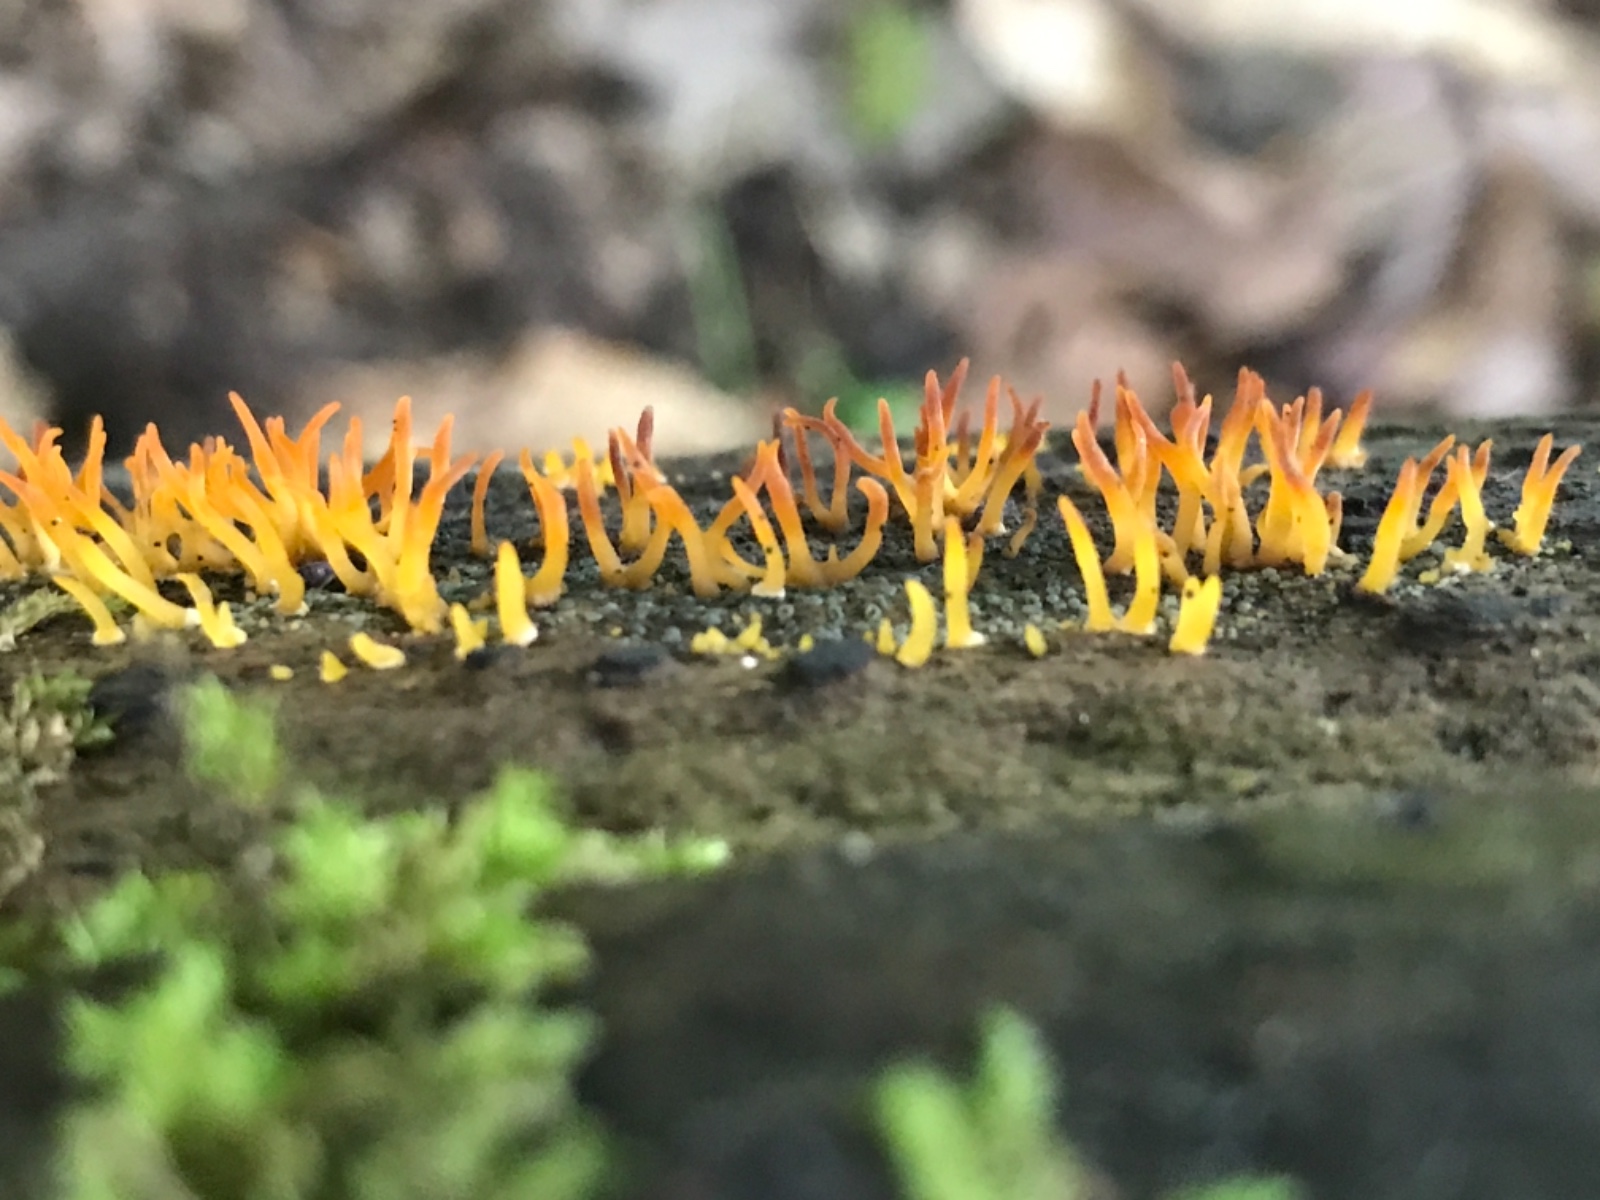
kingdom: Fungi
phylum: Basidiomycota
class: Dacrymycetes
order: Dacrymycetales
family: Dacrymycetaceae
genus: Calocera
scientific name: Calocera cornea
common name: liden guldgaffel
